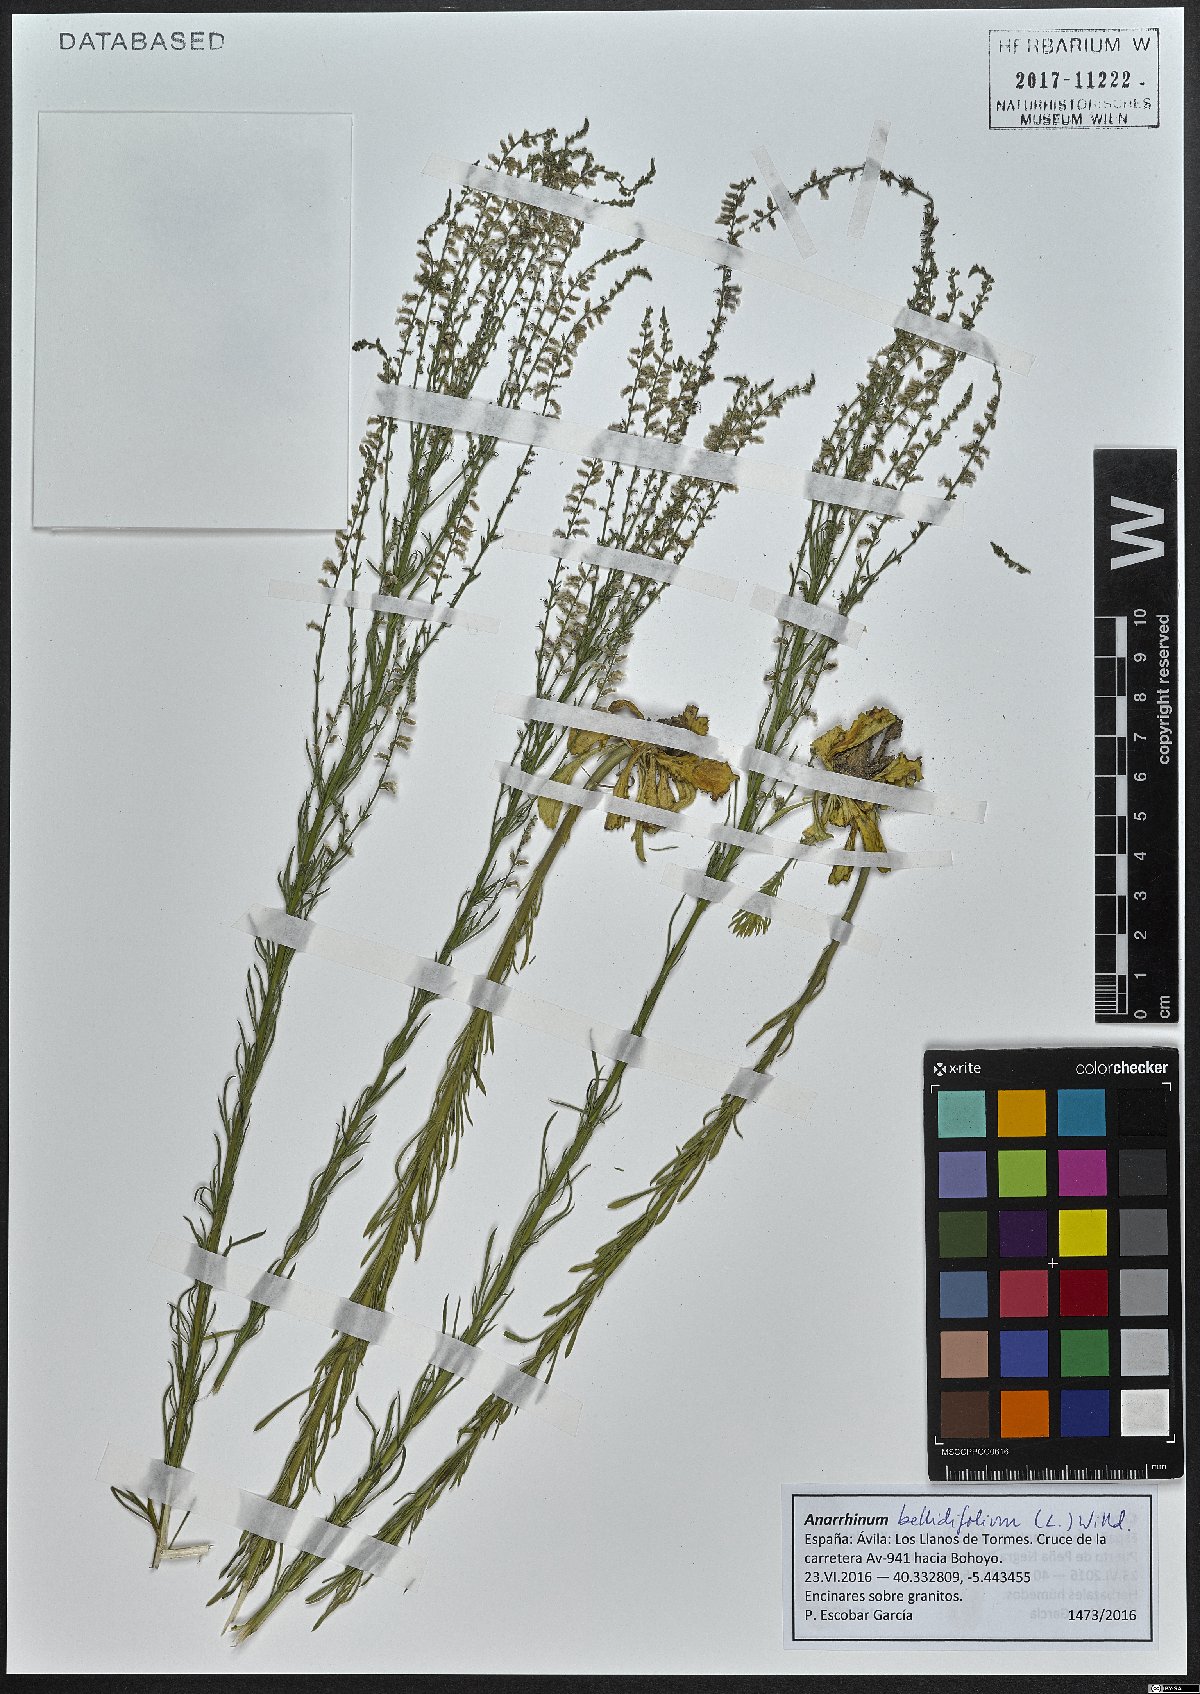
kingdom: Plantae
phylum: Tracheophyta
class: Magnoliopsida
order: Lamiales
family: Plantaginaceae
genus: Anarrhinum
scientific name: Anarrhinum bellidifolium
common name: Daisy-leaved toadflax
